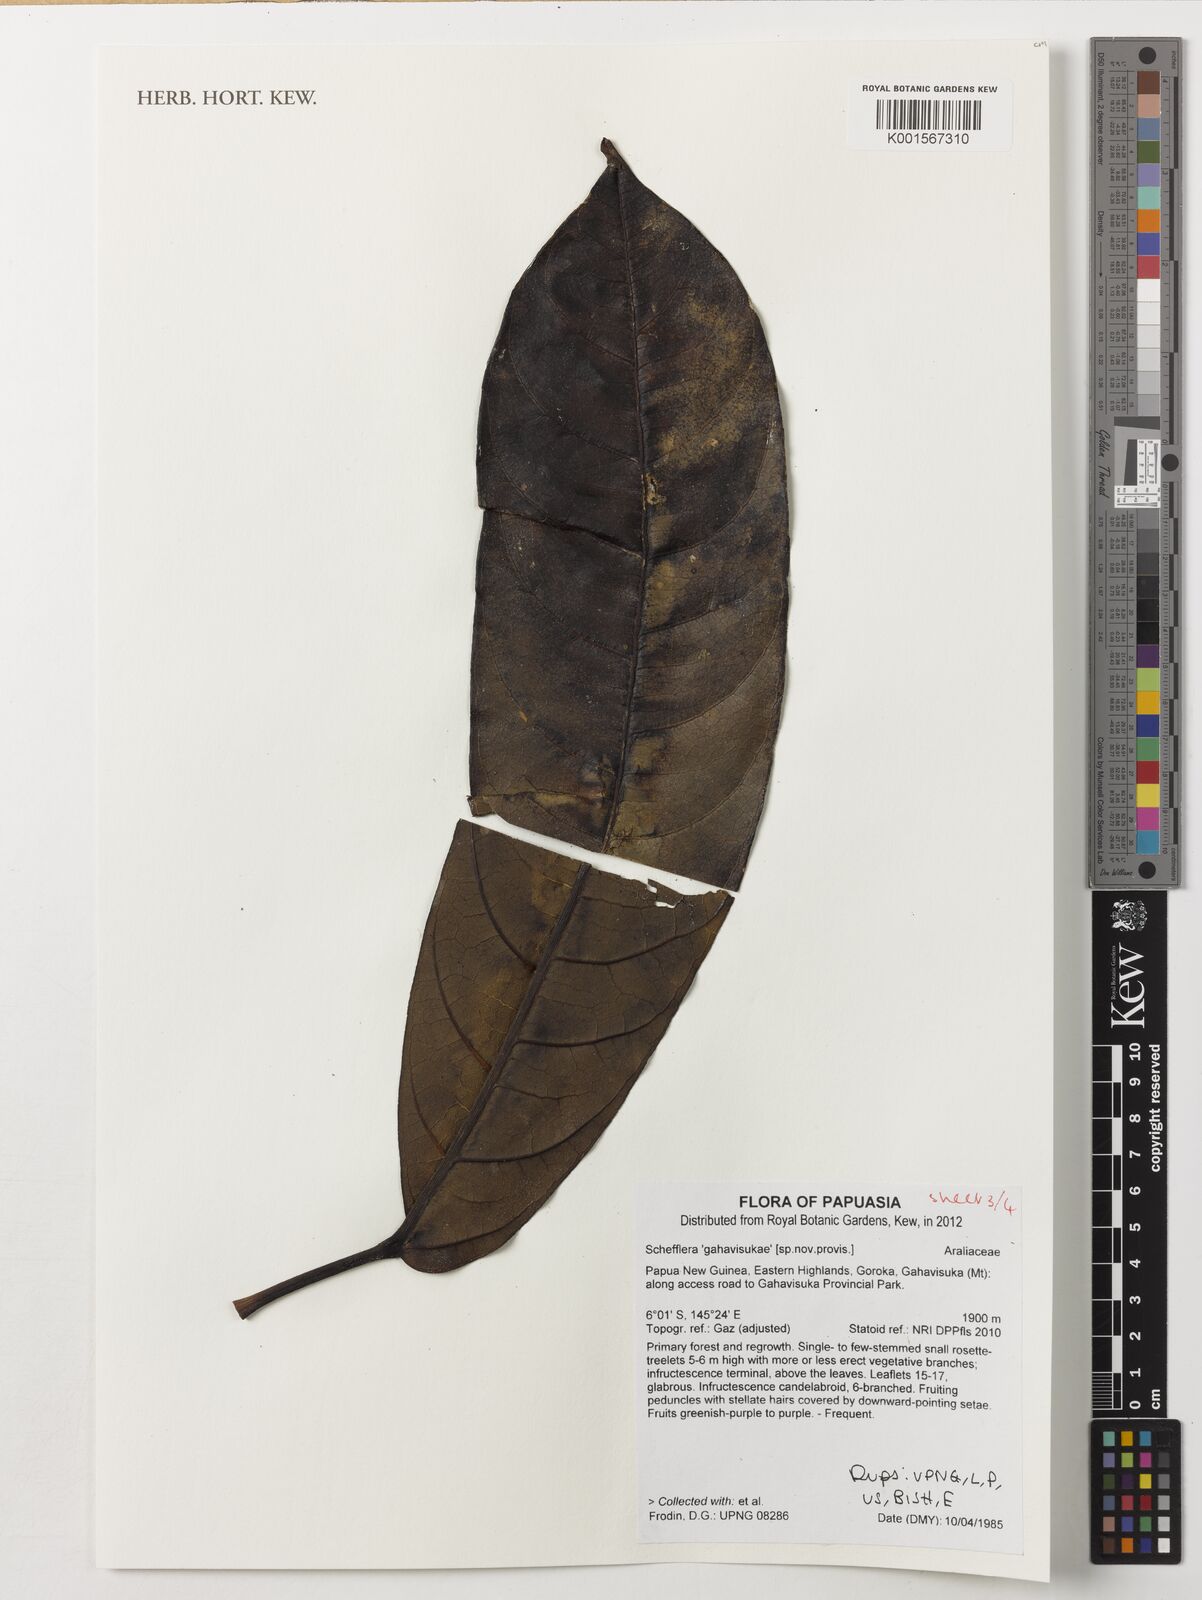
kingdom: Plantae
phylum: Tracheophyta
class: Magnoliopsida
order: Apiales
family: Araliaceae
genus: Schefflera
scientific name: Schefflera
